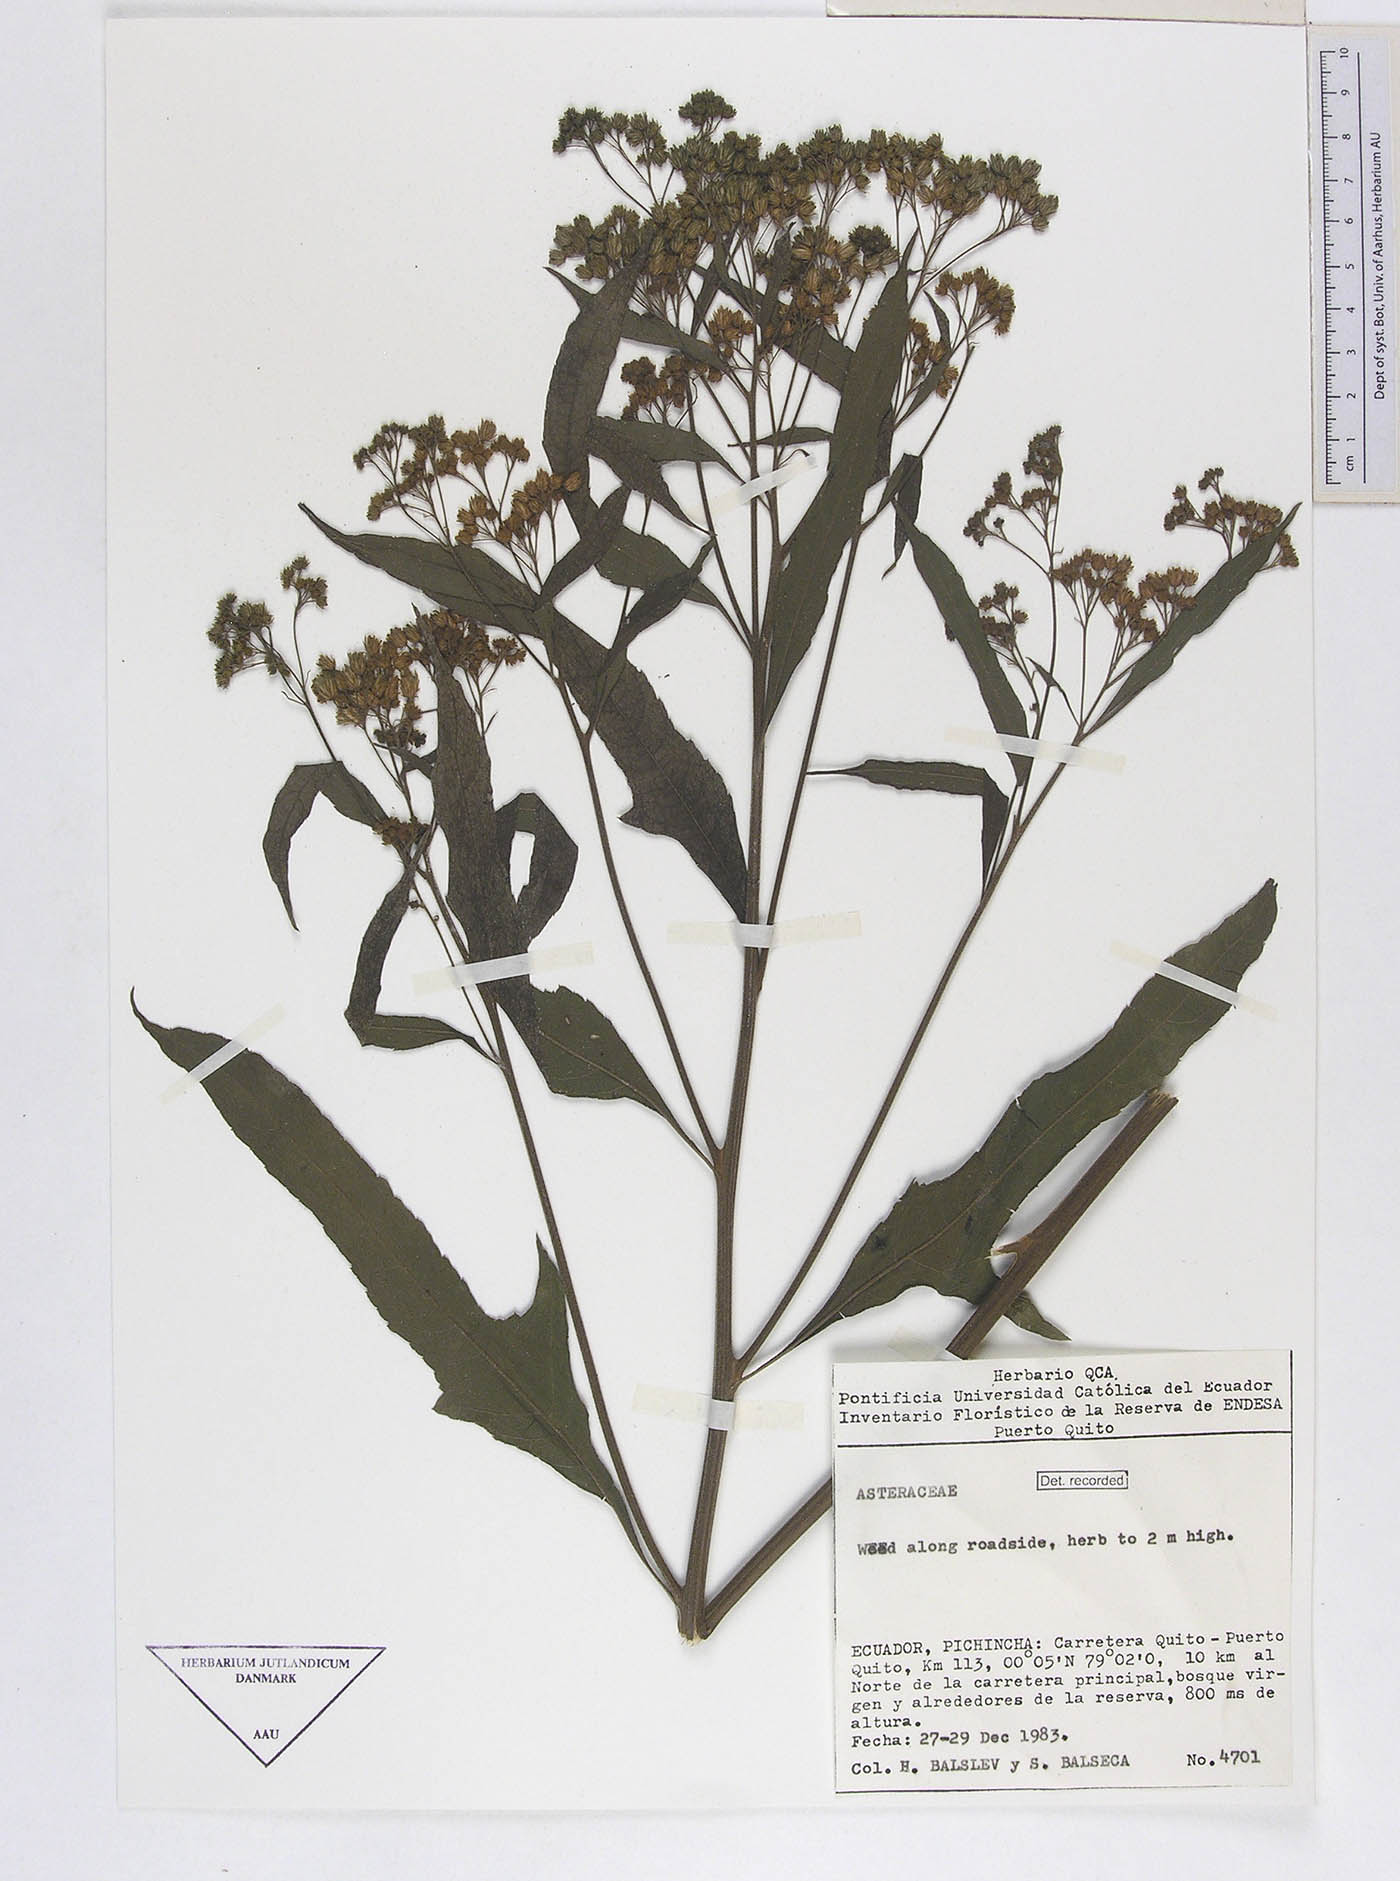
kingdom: Plantae
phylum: Tracheophyta
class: Magnoliopsida
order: Asterales
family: Asteraceae
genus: Neurolaena
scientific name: Neurolaena lobata
